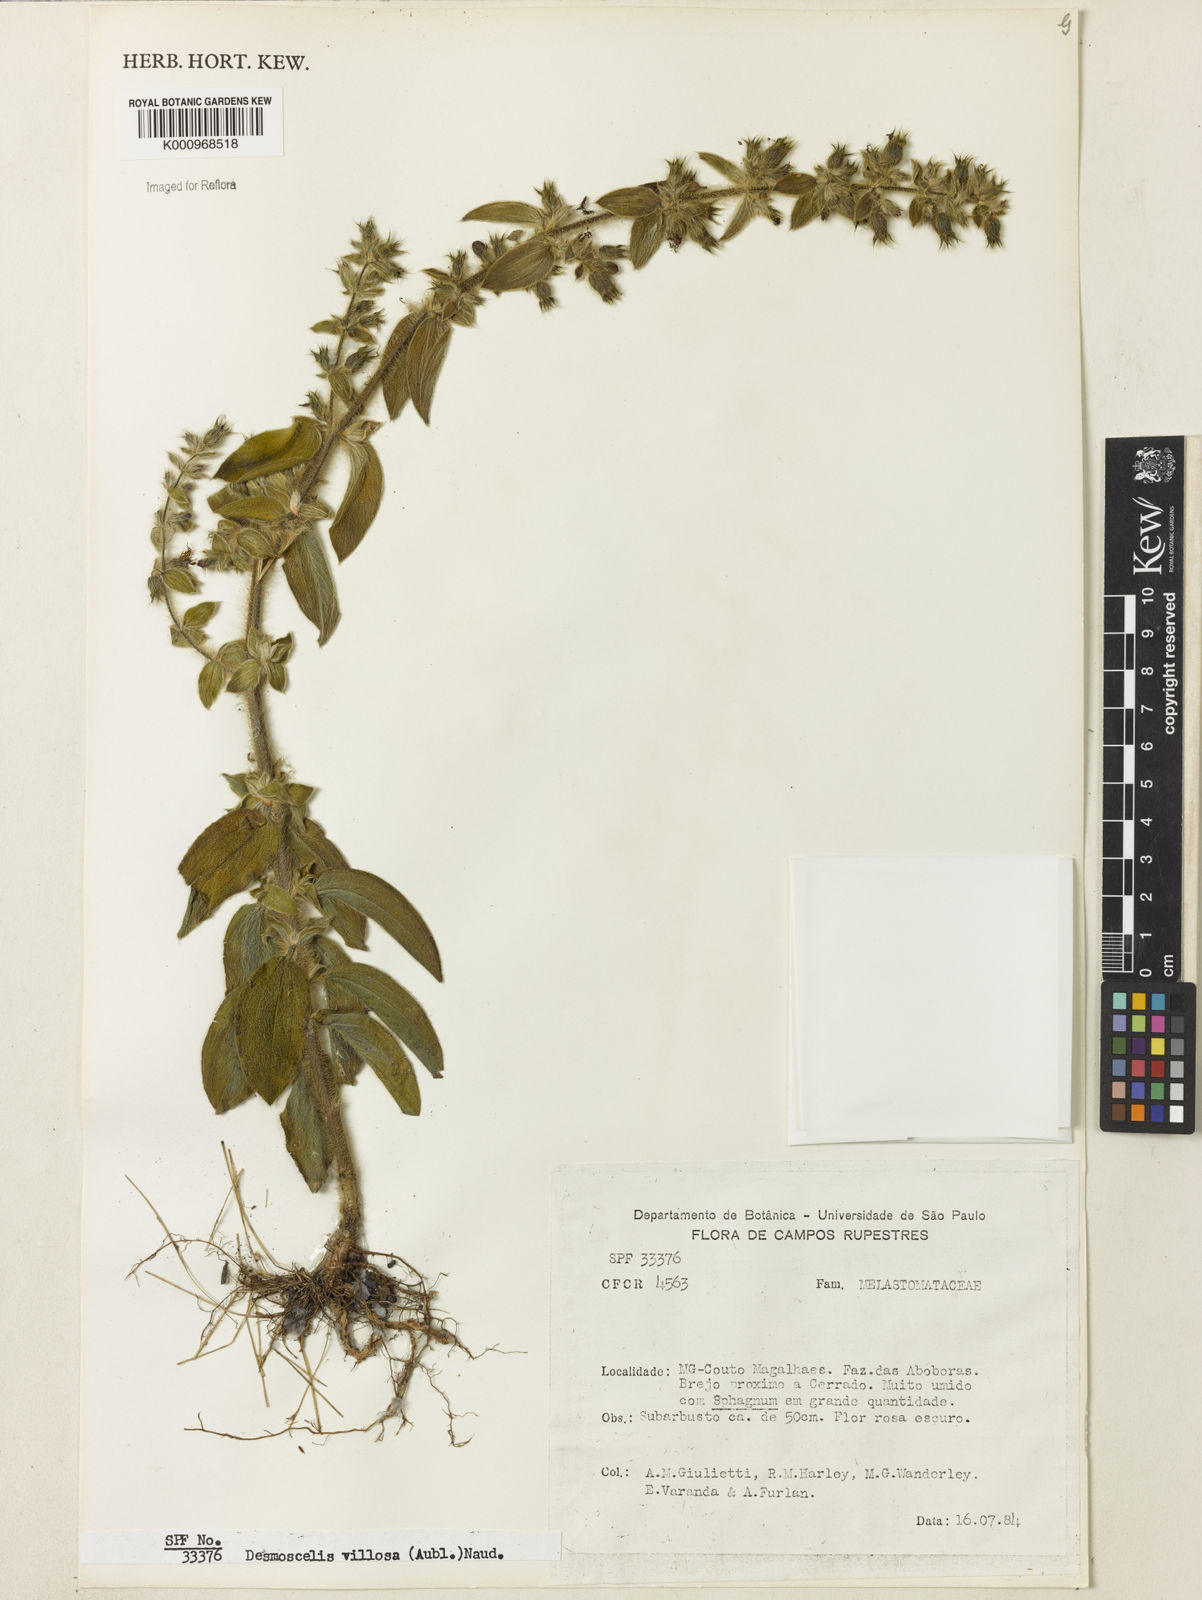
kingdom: Plantae
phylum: Tracheophyta
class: Magnoliopsida
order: Myrtales
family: Melastomataceae
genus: Desmoscelis
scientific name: Desmoscelis villosa
